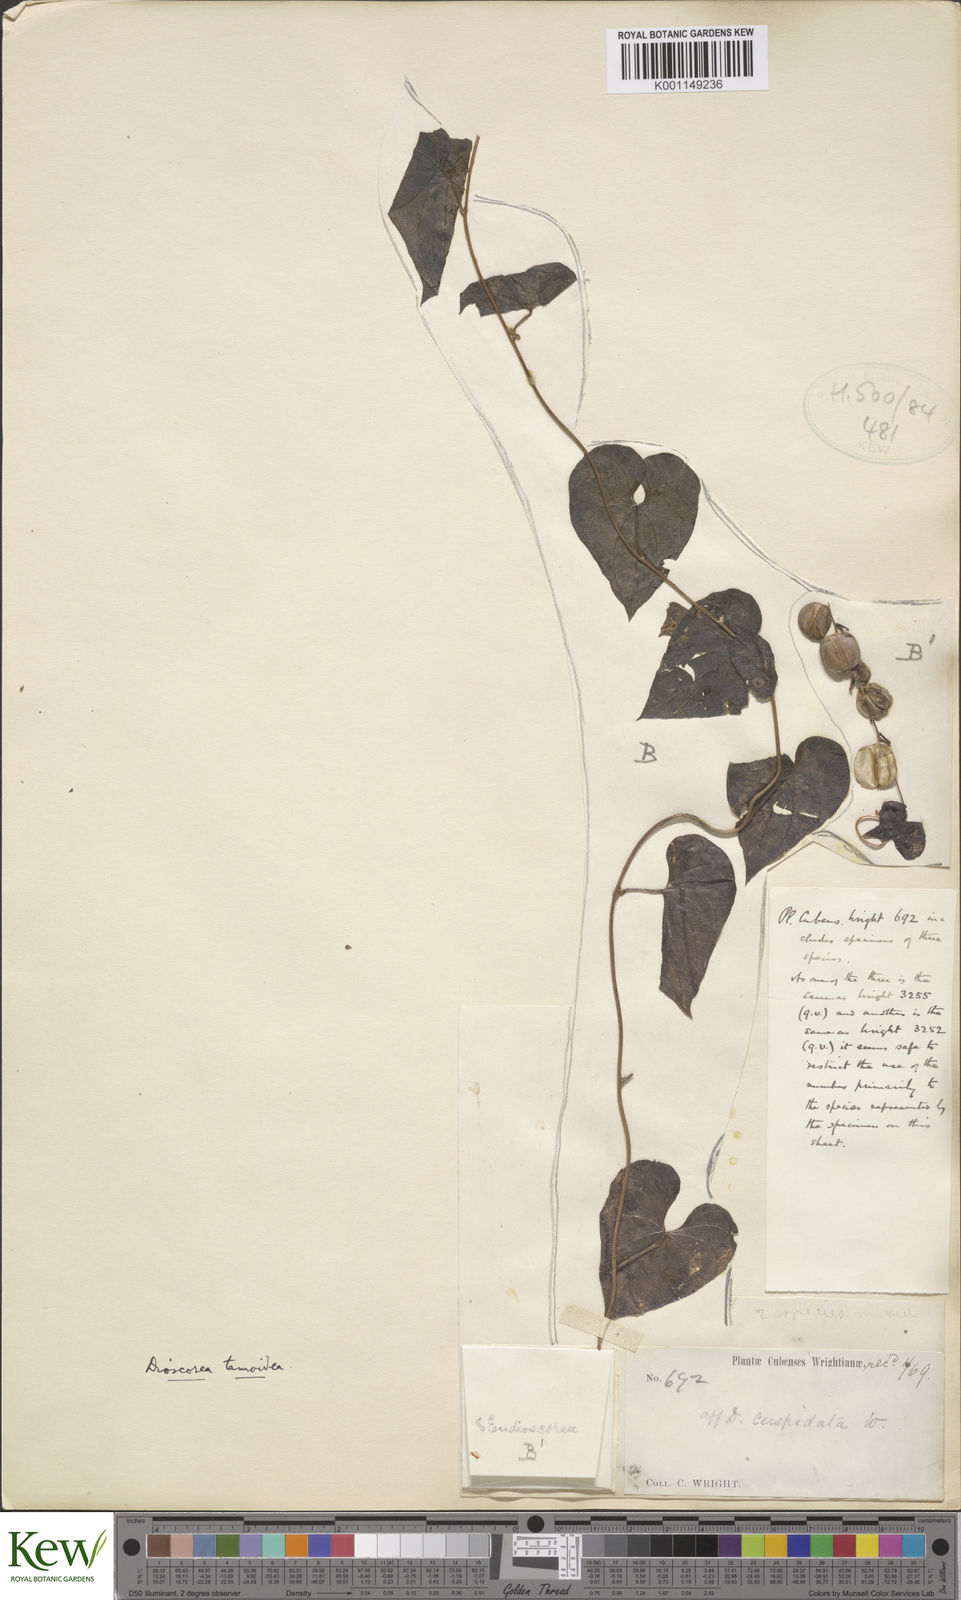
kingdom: Plantae
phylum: Tracheophyta
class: Liliopsida
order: Dioscoreales
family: Dioscoreaceae
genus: Dioscorea
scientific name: Dioscorea tamoidea
